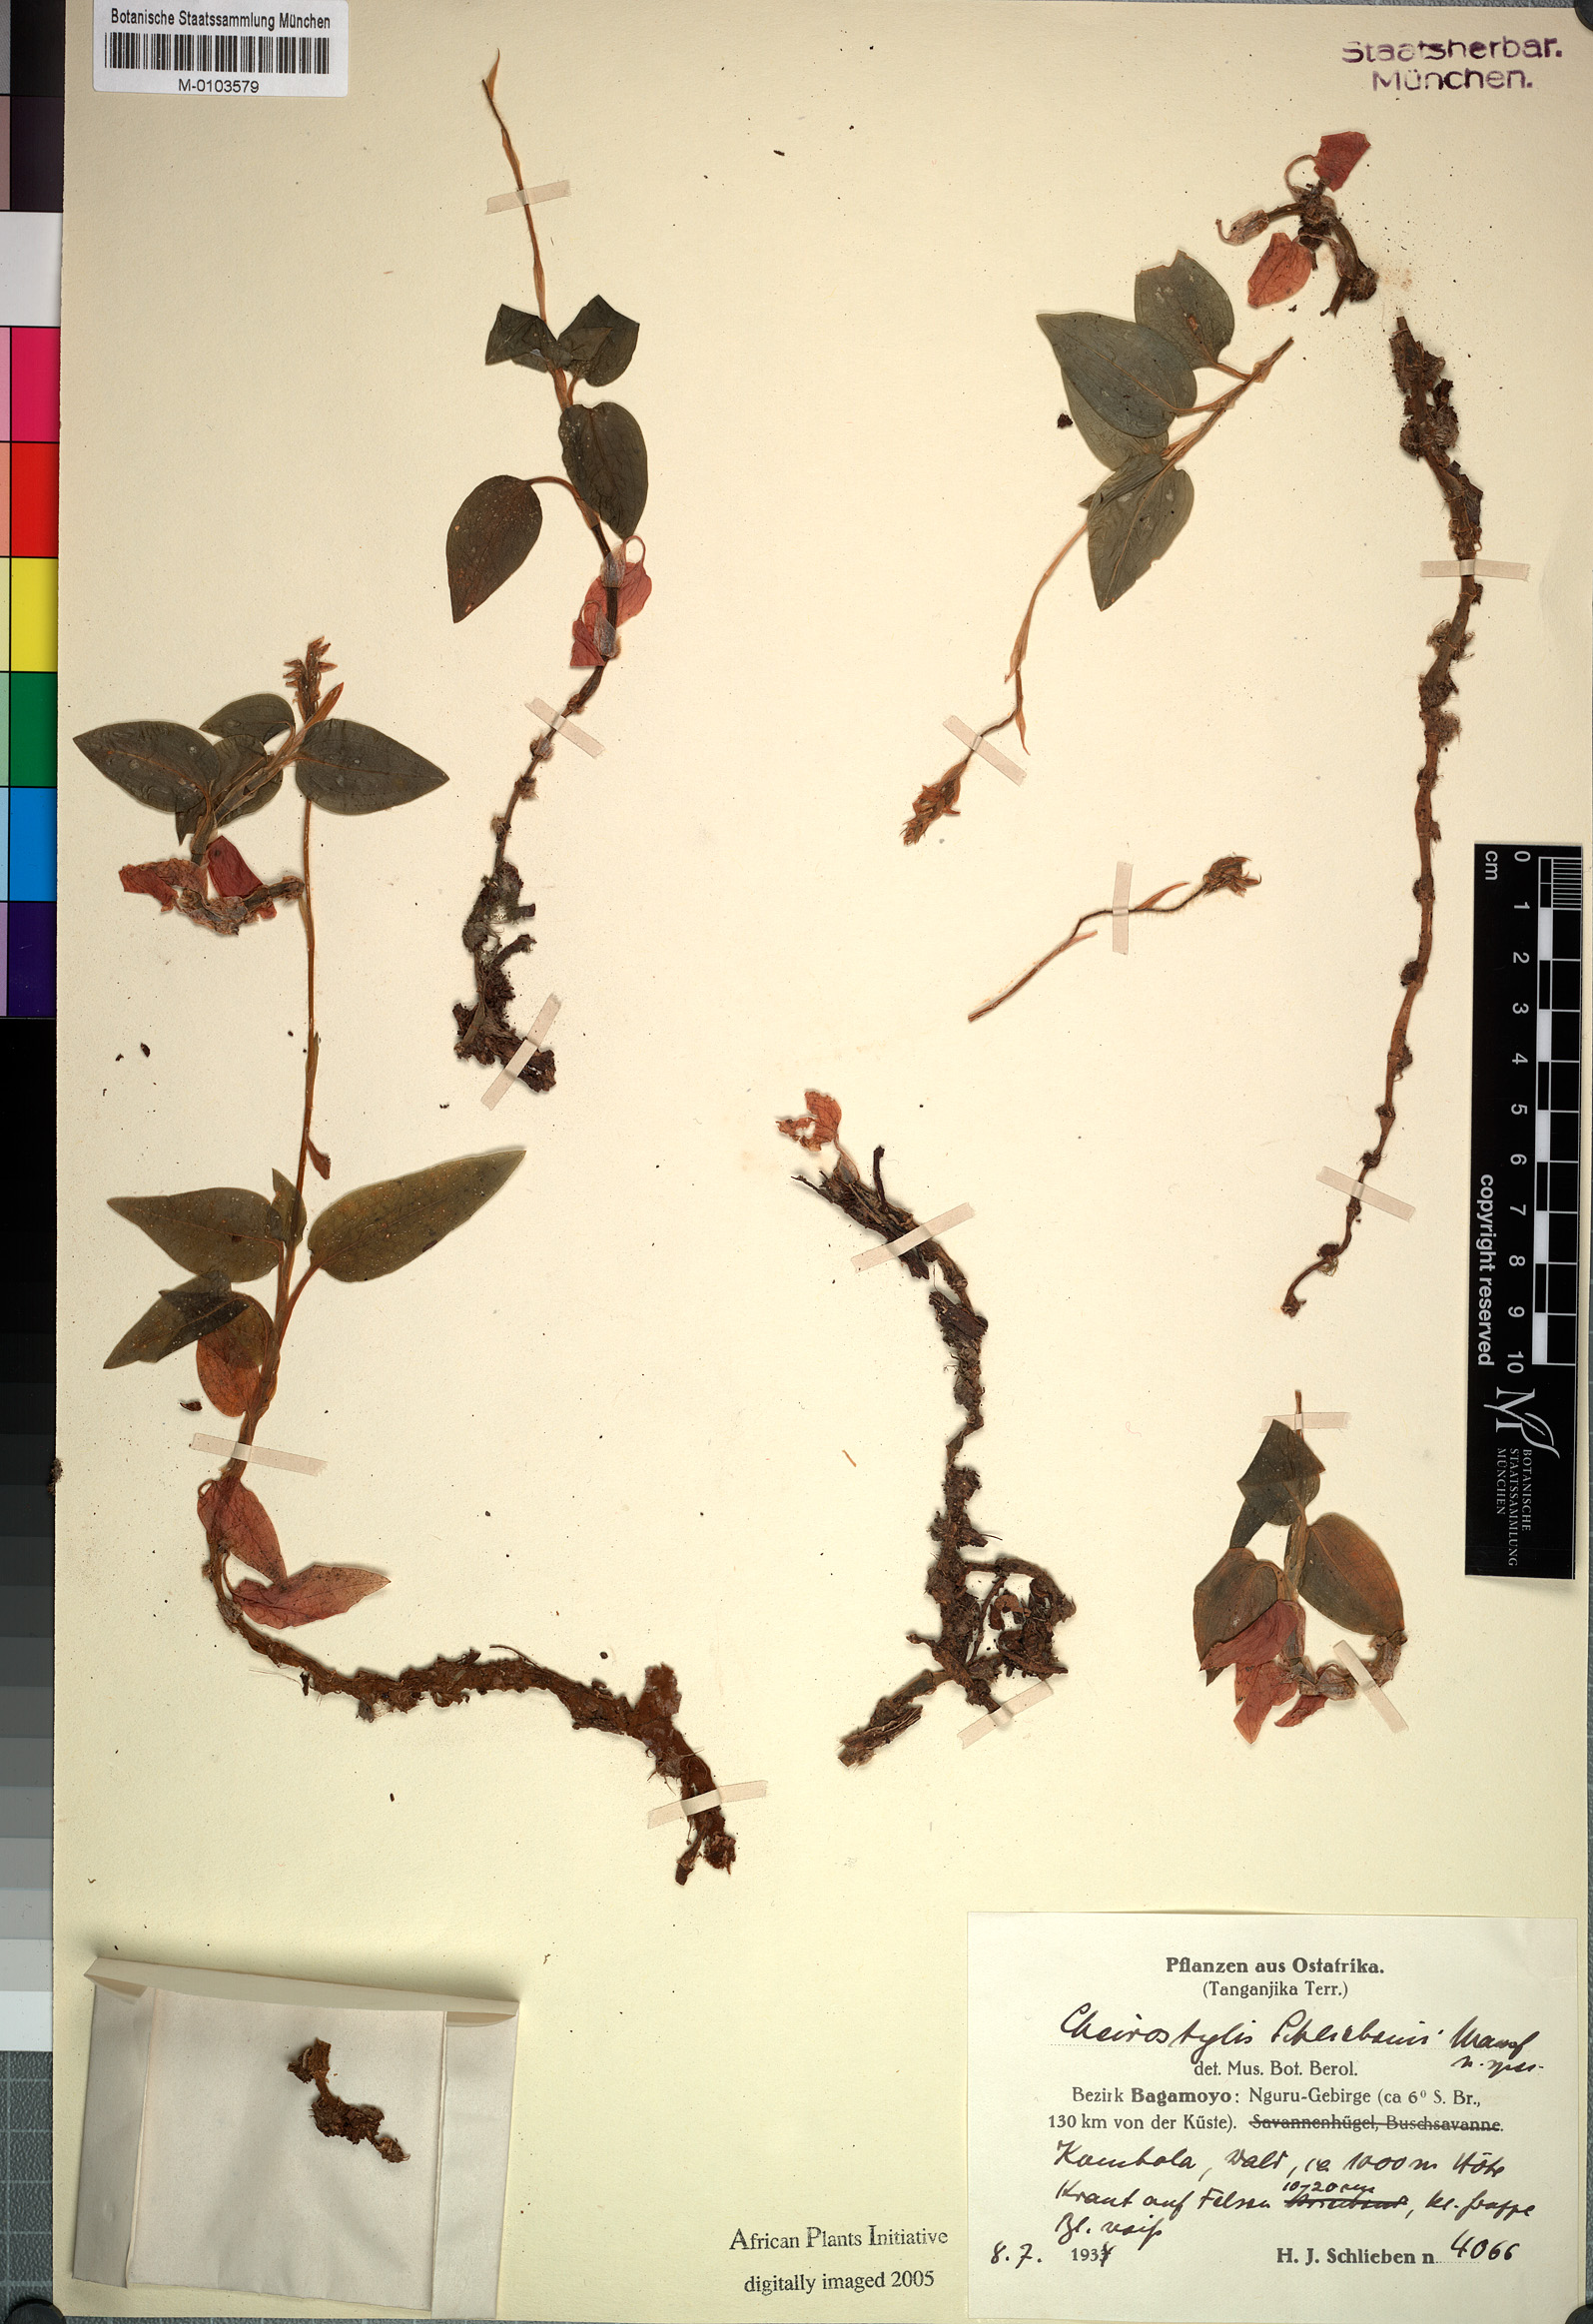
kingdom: Plantae
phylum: Tracheophyta
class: Liliopsida
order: Asparagales
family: Orchidaceae
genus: Zeuxine
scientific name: Zeuxine lunulata
